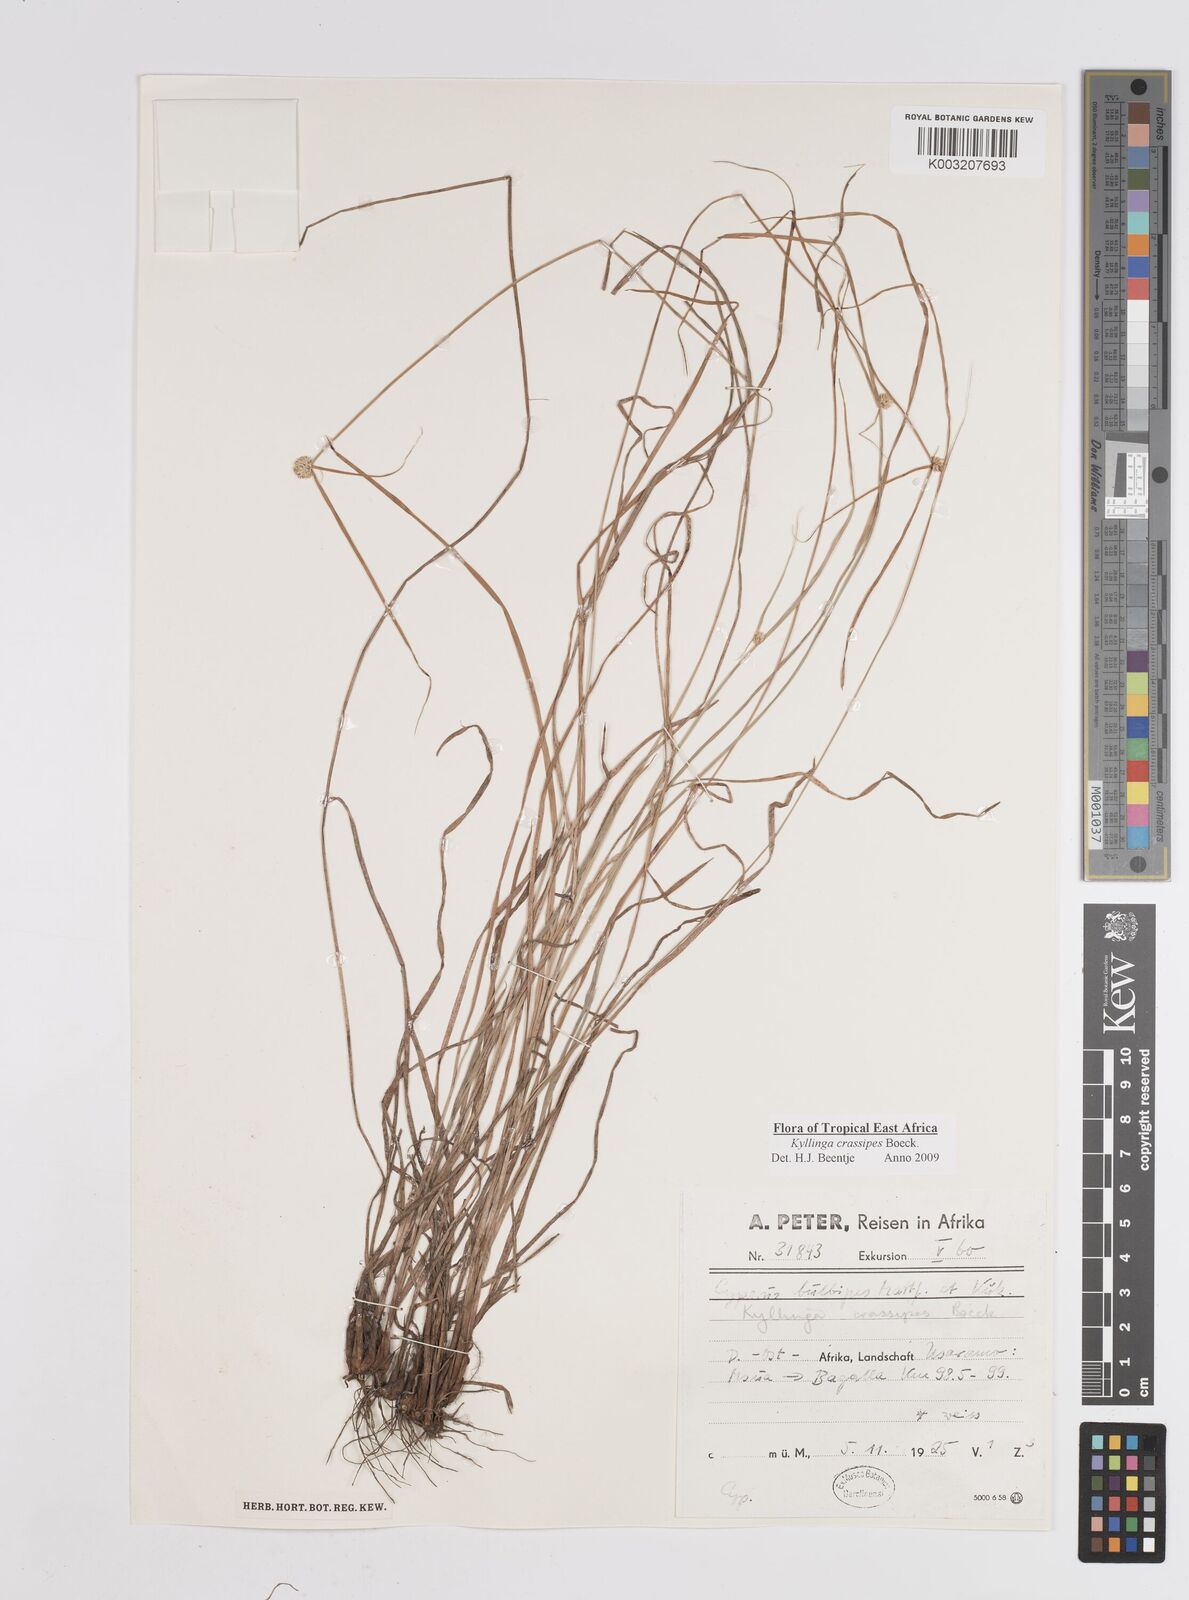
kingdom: Plantae
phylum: Tracheophyta
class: Liliopsida
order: Poales
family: Cyperaceae
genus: Cyperus
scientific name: Cyperus crassipes
